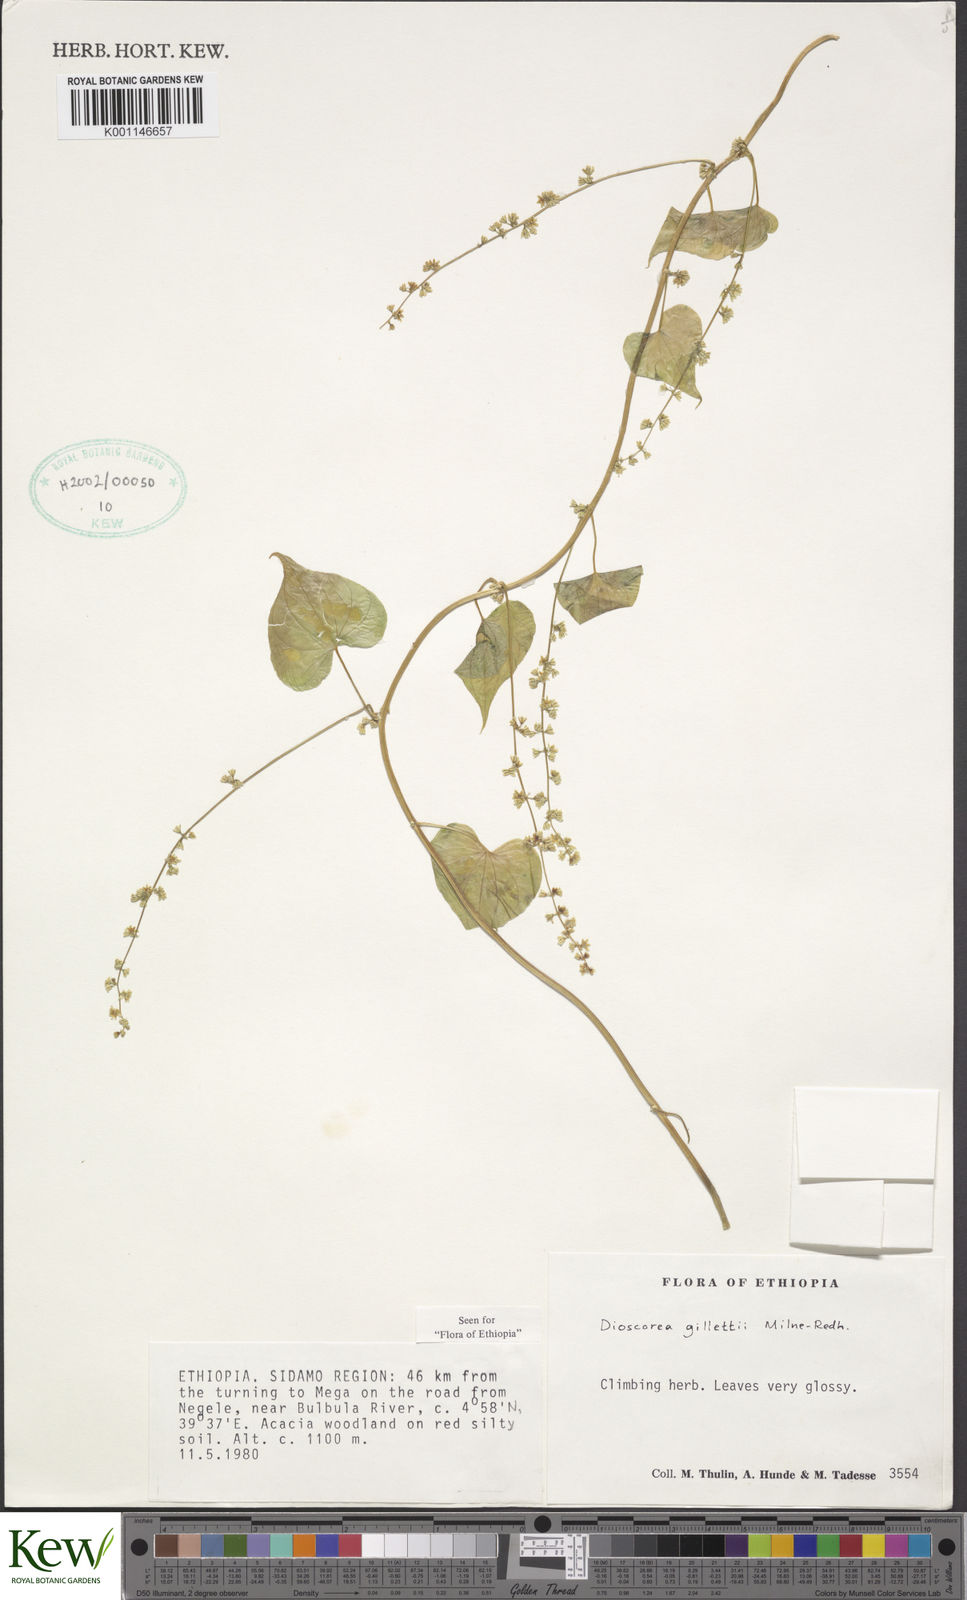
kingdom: Plantae
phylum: Tracheophyta
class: Liliopsida
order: Dioscoreales
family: Dioscoreaceae
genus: Dioscorea
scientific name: Dioscorea gillettii
